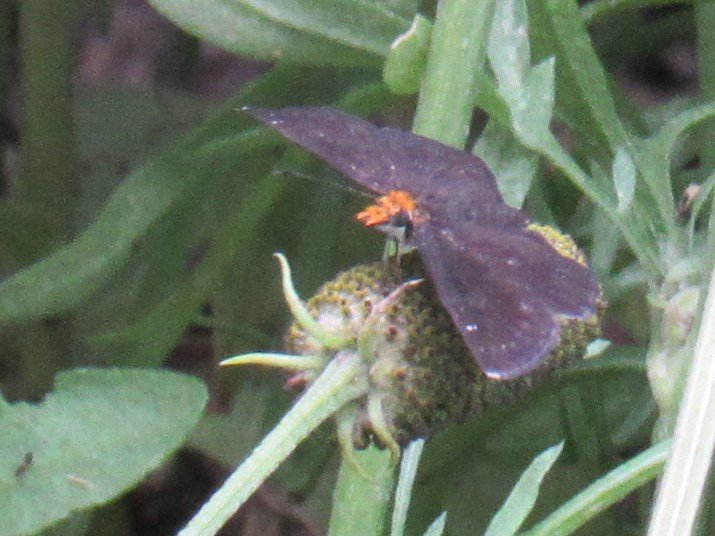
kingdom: Animalia
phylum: Arthropoda
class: Insecta
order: Lepidoptera
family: Hesperiidae
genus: Staphylus
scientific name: Staphylus ceos
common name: Golden-headed Scallopwing
